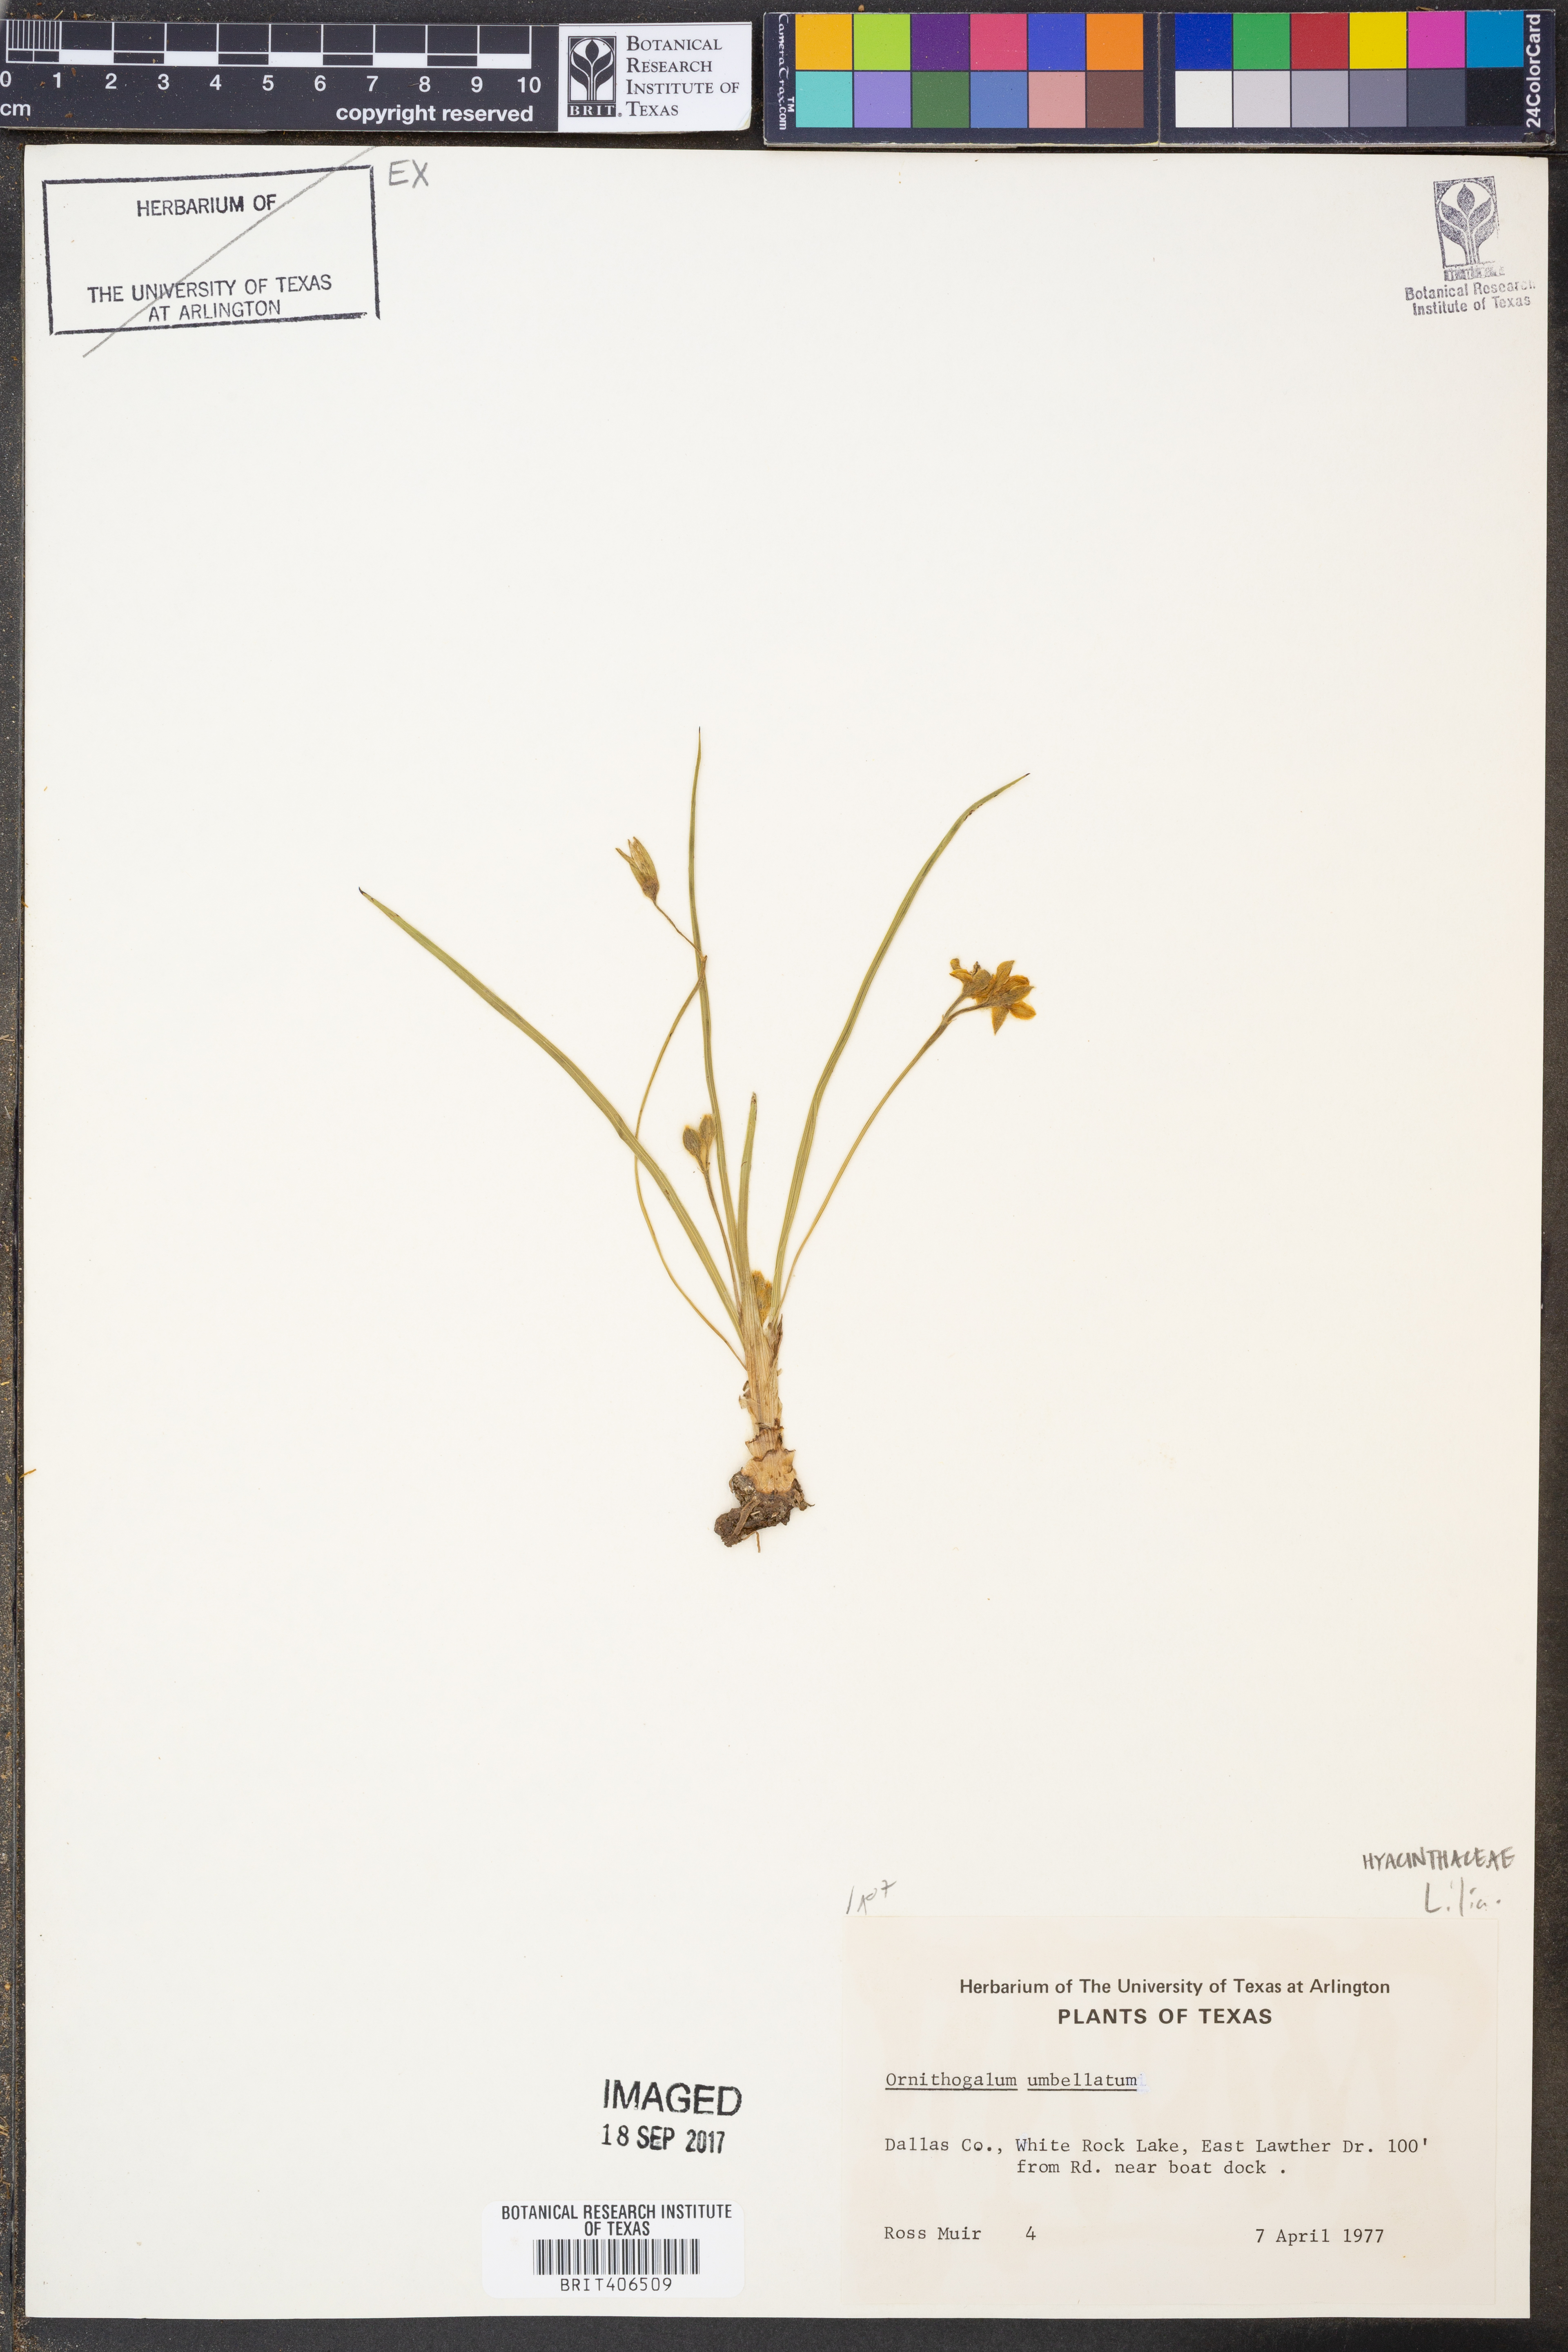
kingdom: Plantae
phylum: Tracheophyta
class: Liliopsida
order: Asparagales
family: Asparagaceae
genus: Ornithogalum
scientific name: Ornithogalum umbellatum
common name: Garden star-of-bethlehem
